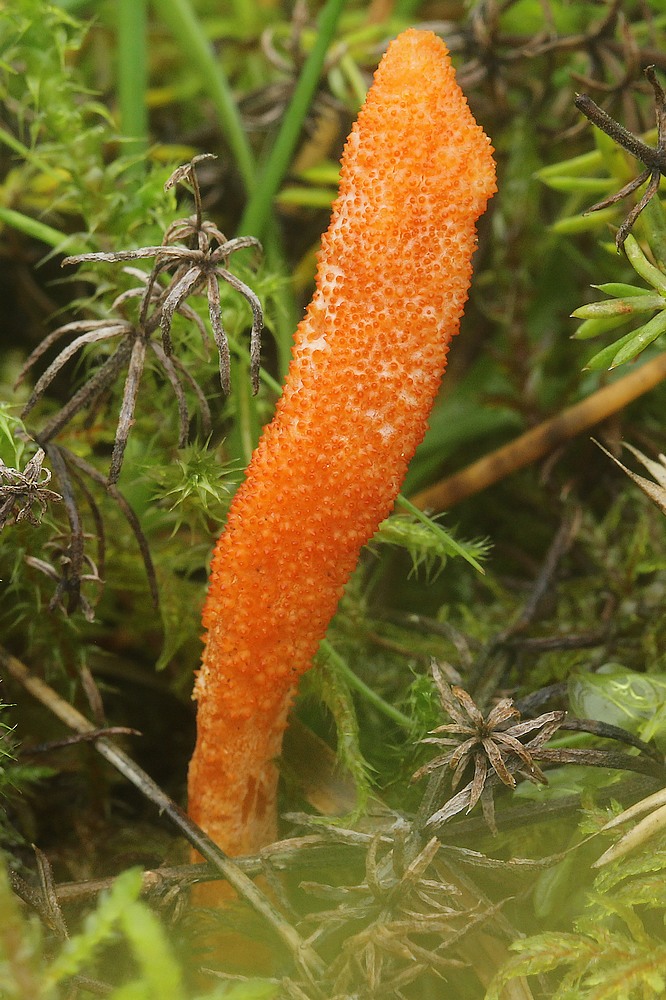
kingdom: Fungi
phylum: Ascomycota
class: Sordariomycetes
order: Hypocreales
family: Cordycipitaceae
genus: Cordyceps
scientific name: Cordyceps militaris
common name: puppe-snyltekølle
